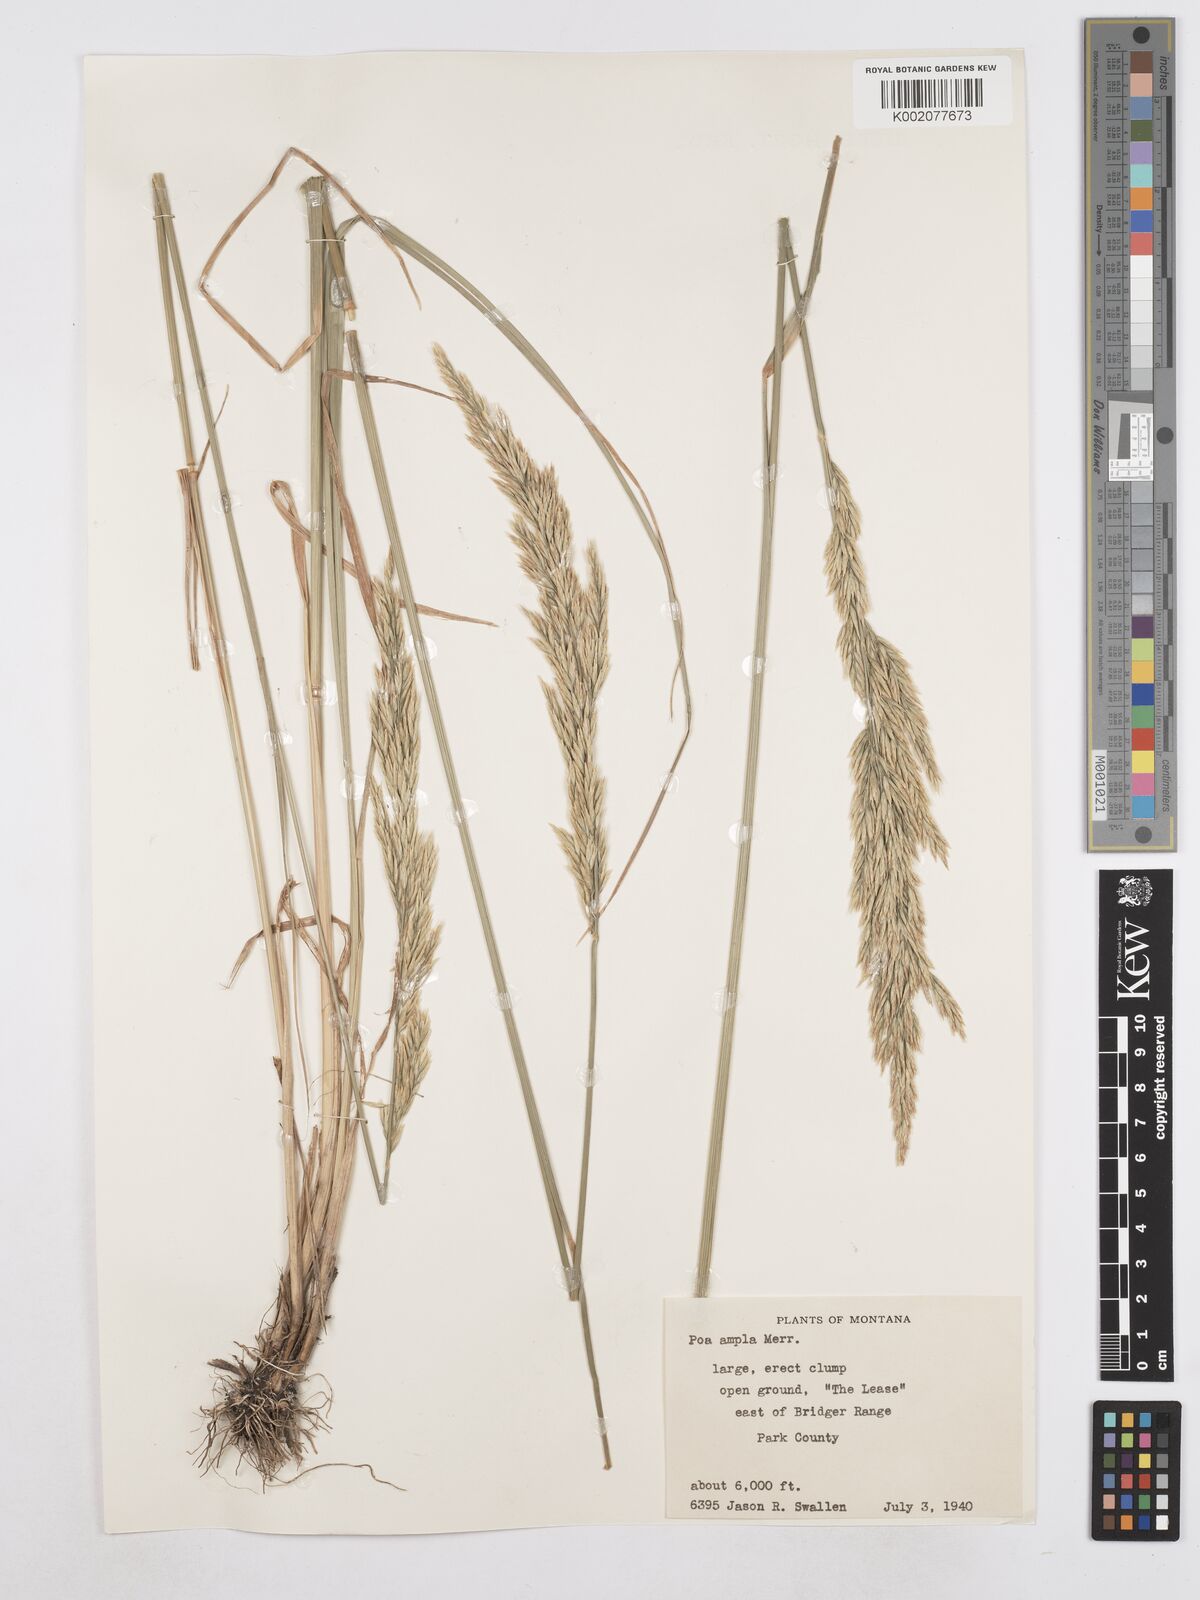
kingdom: Plantae
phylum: Tracheophyta
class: Liliopsida
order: Poales
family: Poaceae
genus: Poa
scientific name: Poa secunda
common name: Sandberg bluegrass
